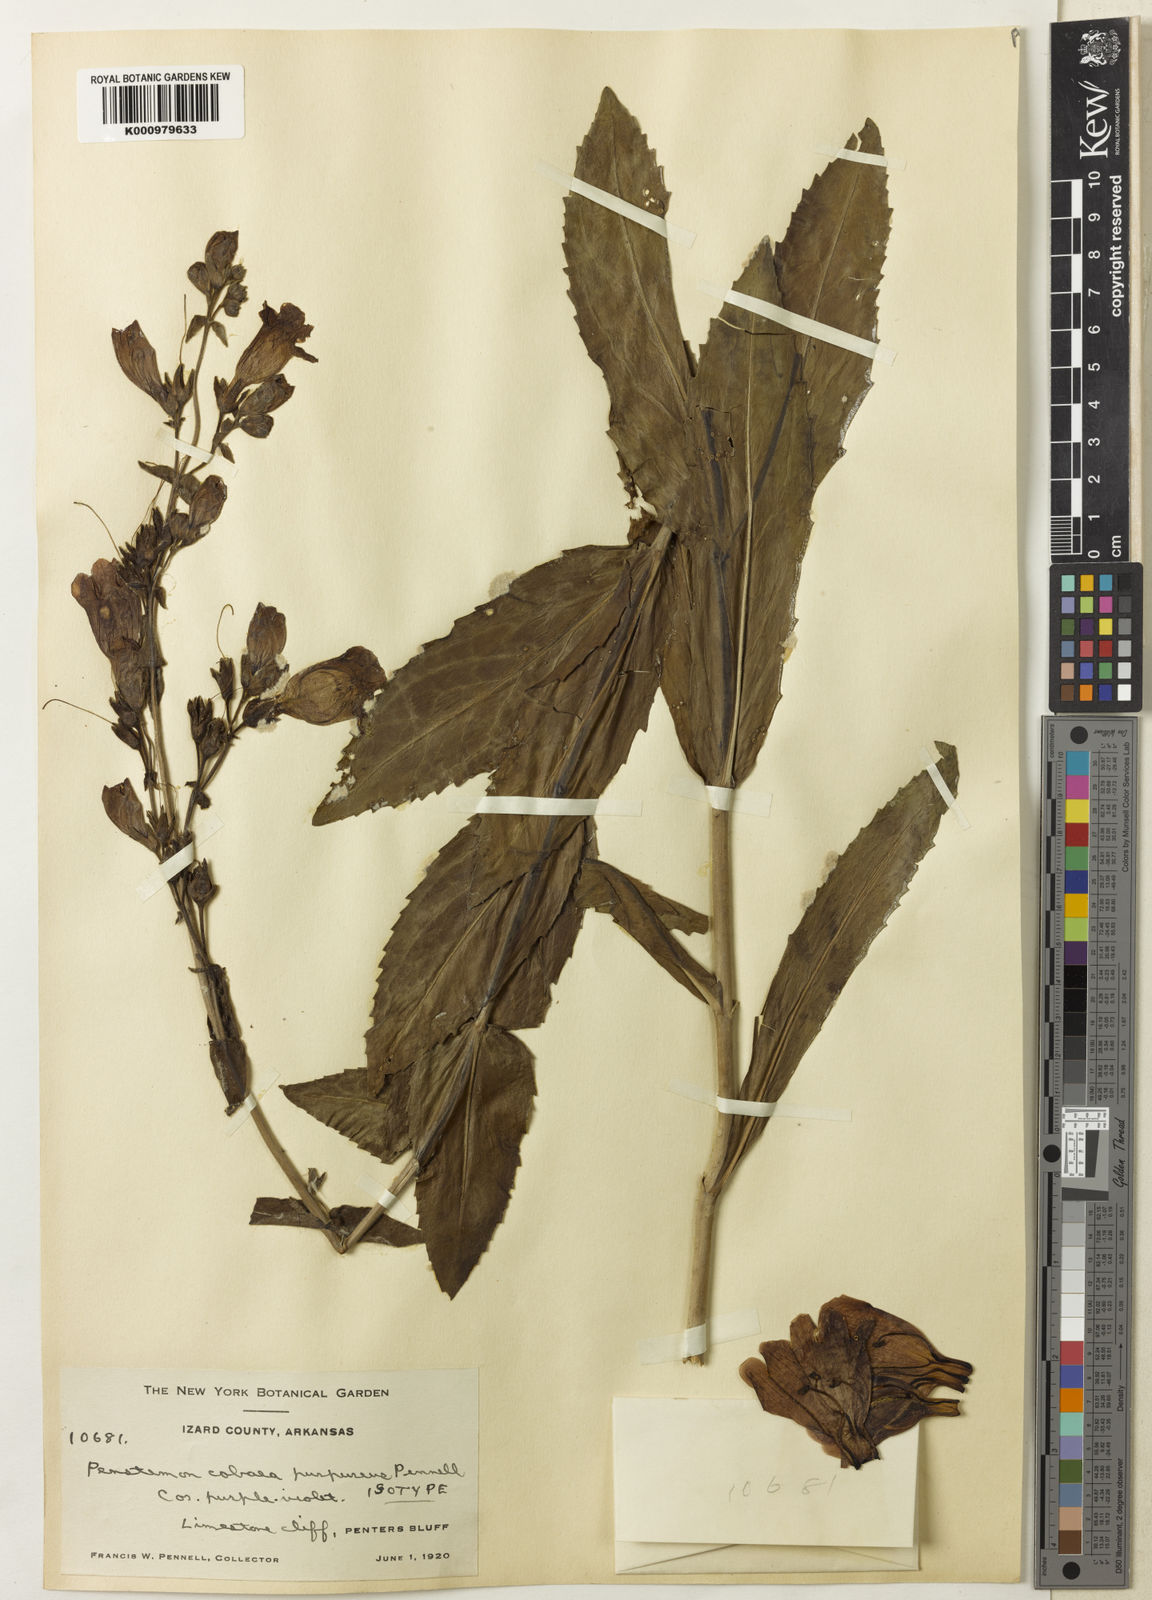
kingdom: Plantae
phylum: Tracheophyta
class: Magnoliopsida
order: Lamiales
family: Plantaginaceae
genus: Penstemon
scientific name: Penstemon cobaea
